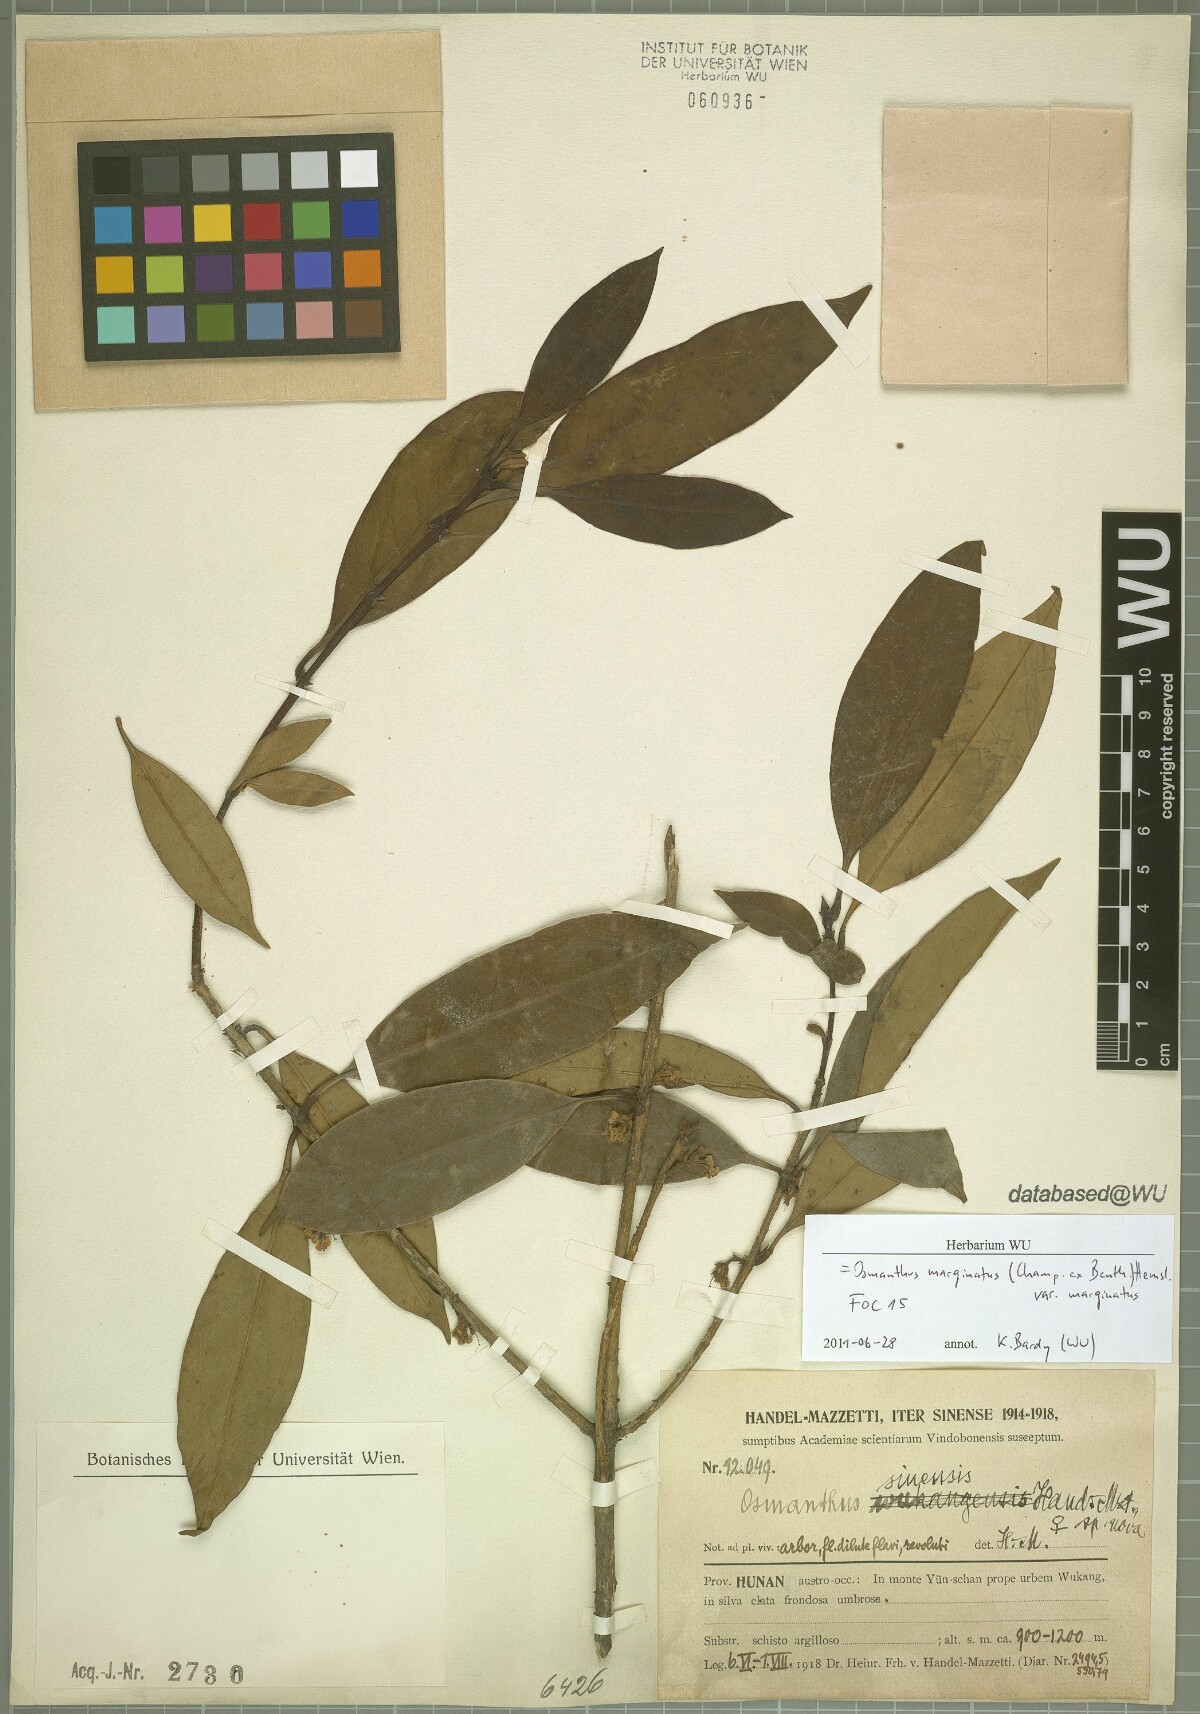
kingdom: Plantae
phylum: Tracheophyta
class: Magnoliopsida
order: Lamiales
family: Oleaceae
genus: Chengiodendron
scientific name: Chengiodendron marginatum
